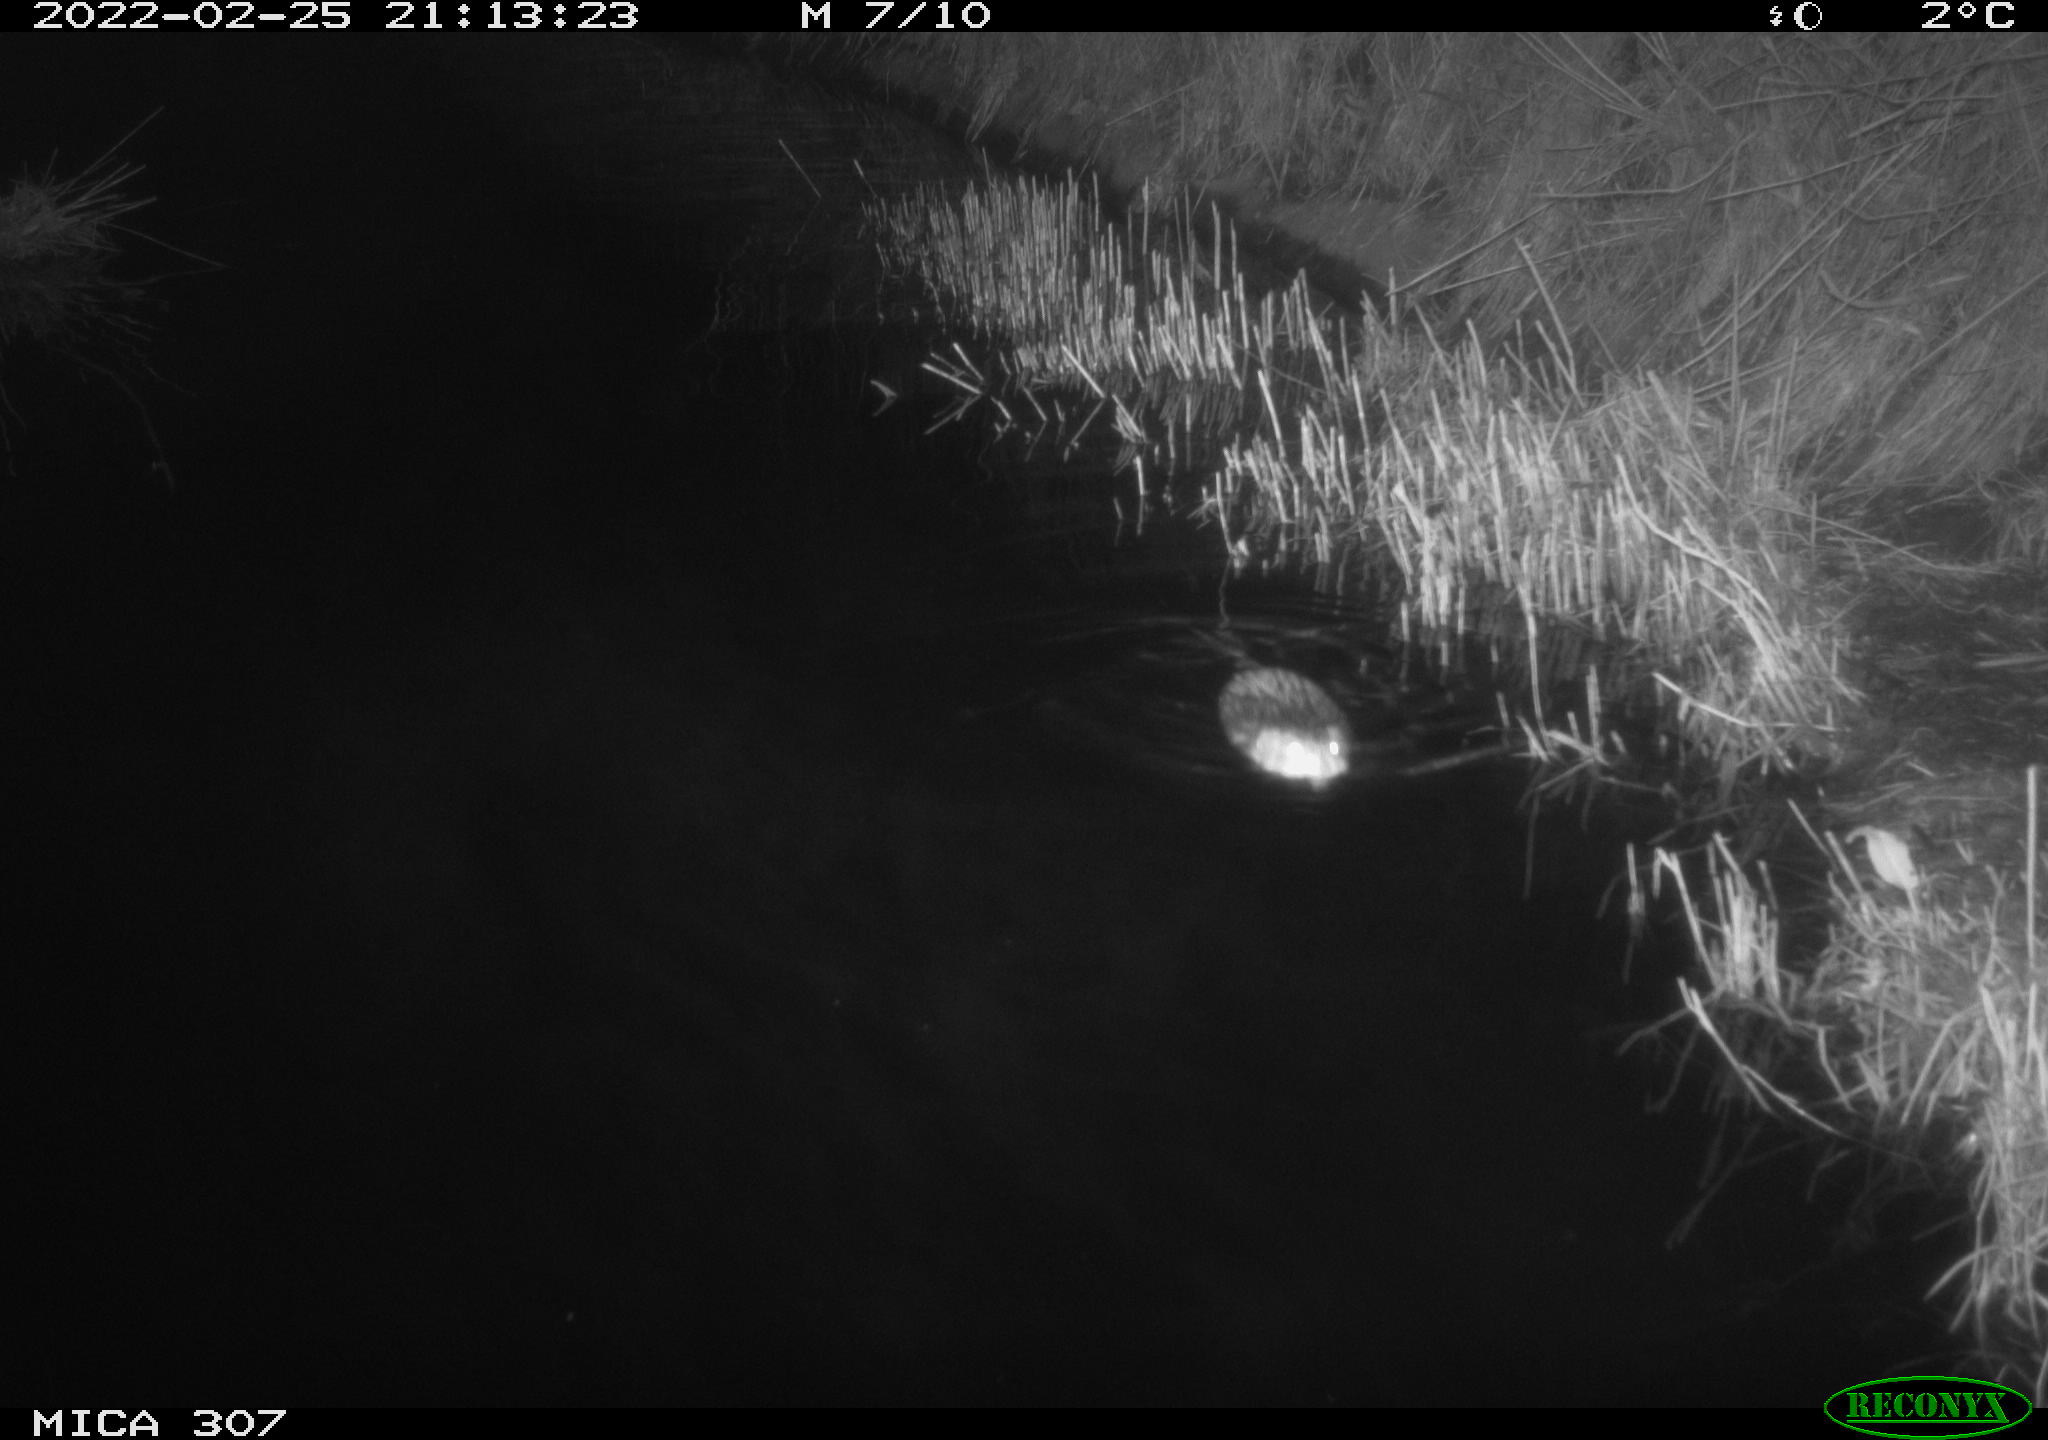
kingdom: Animalia
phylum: Chordata
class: Mammalia
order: Rodentia
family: Cricetidae
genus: Ondatra
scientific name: Ondatra zibethicus
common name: Muskrat
